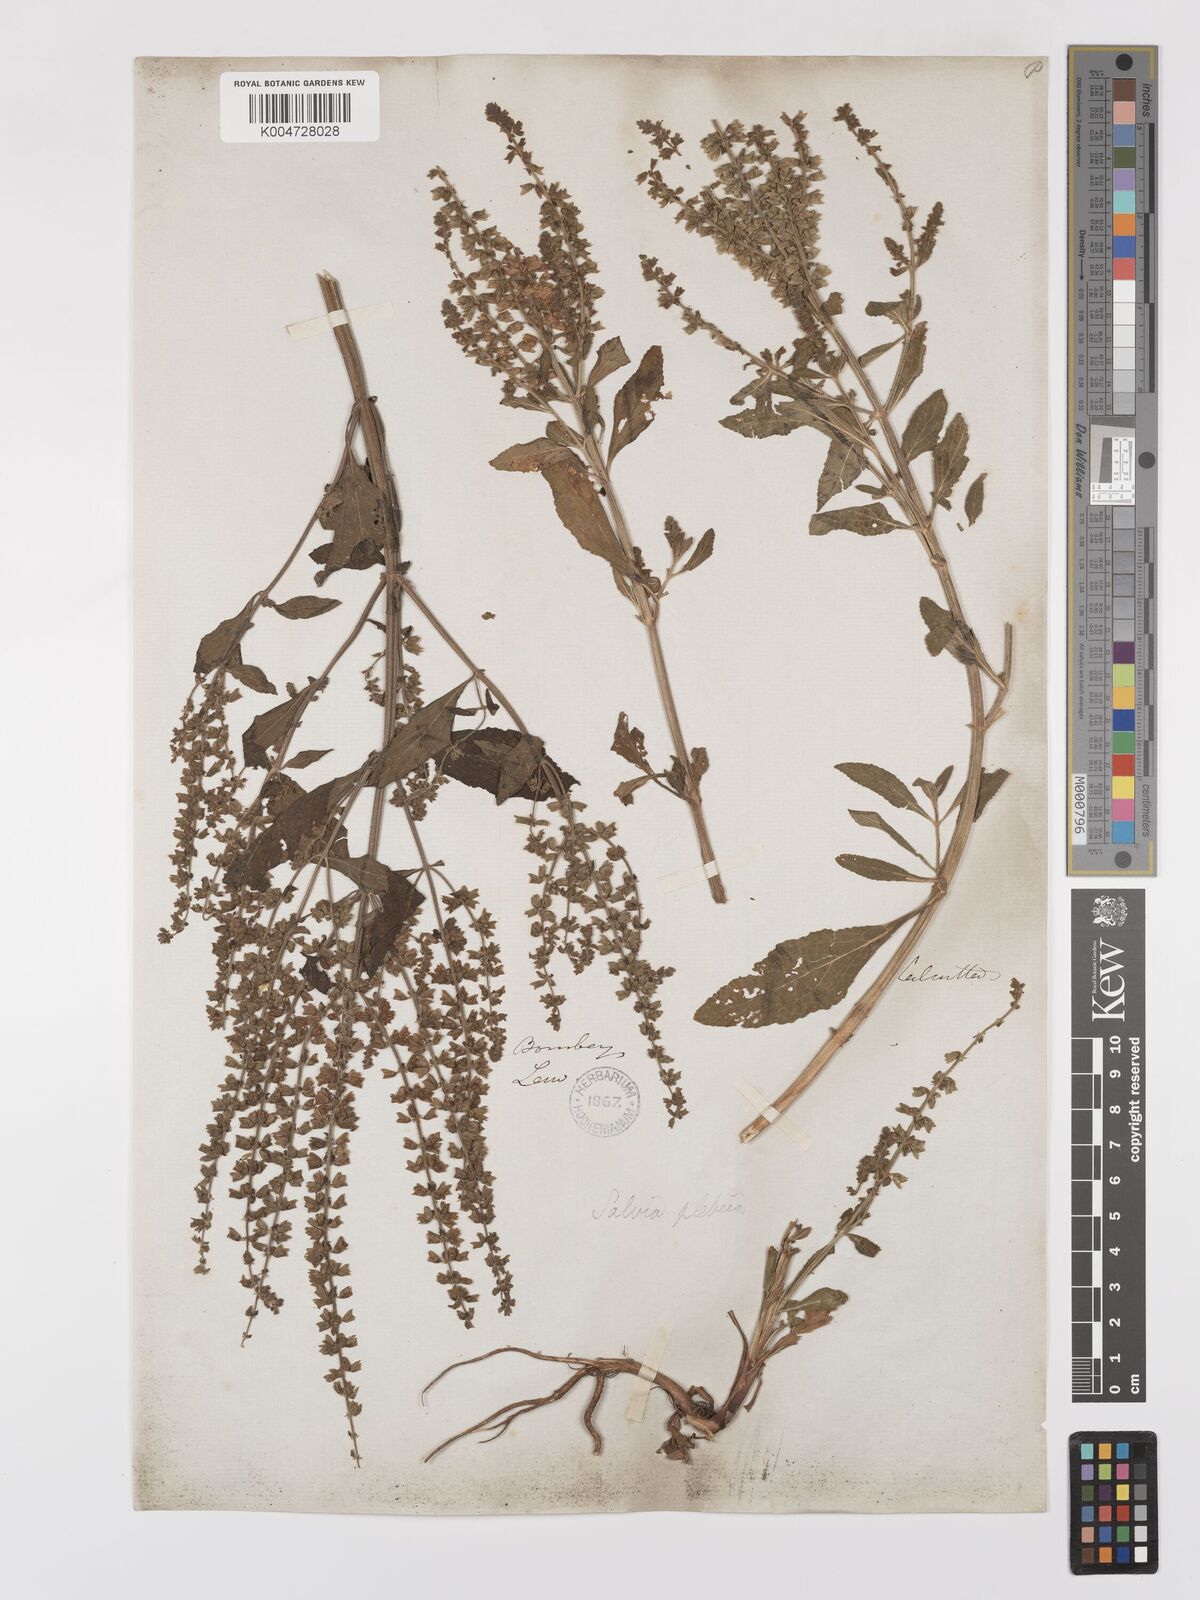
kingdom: Plantae
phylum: Tracheophyta
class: Magnoliopsida
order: Lamiales
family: Lamiaceae
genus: Salvia
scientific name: Salvia plebeia
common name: Australian sage
